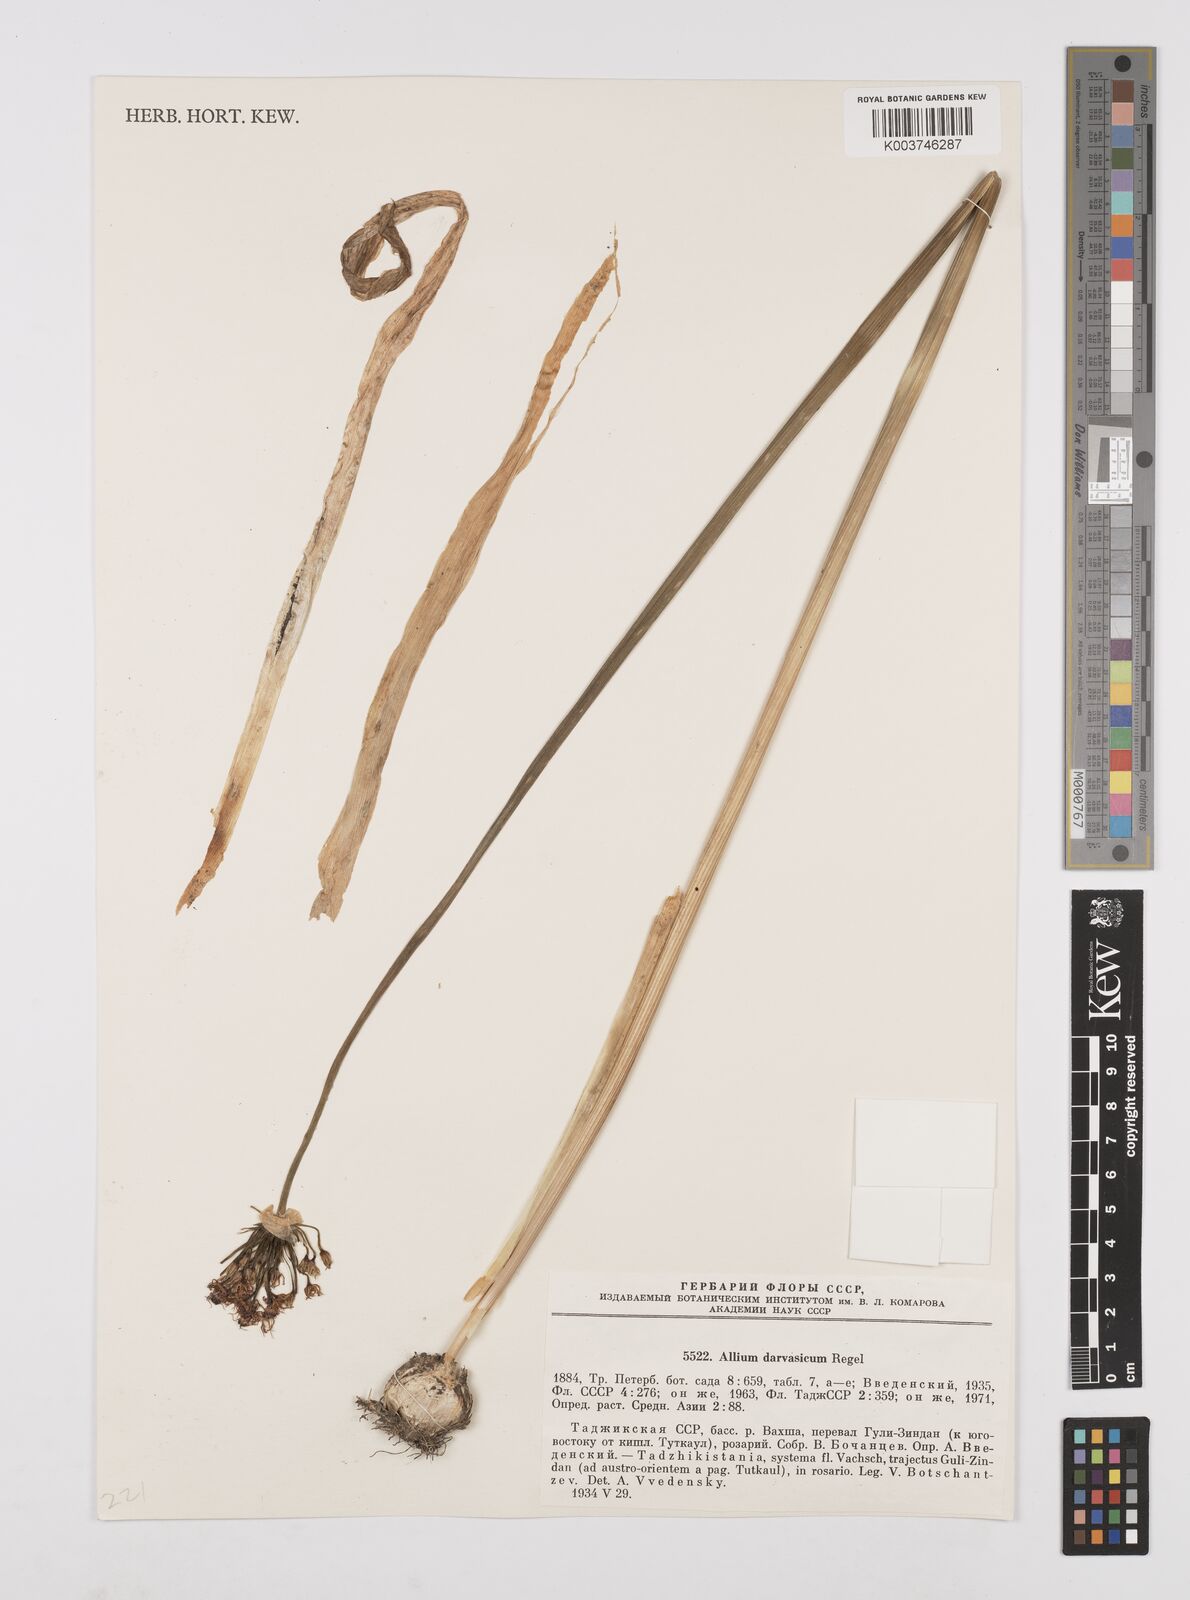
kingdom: Plantae
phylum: Tracheophyta
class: Liliopsida
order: Asparagales
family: Amaryllidaceae
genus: Allium
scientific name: Allium darwasicum
